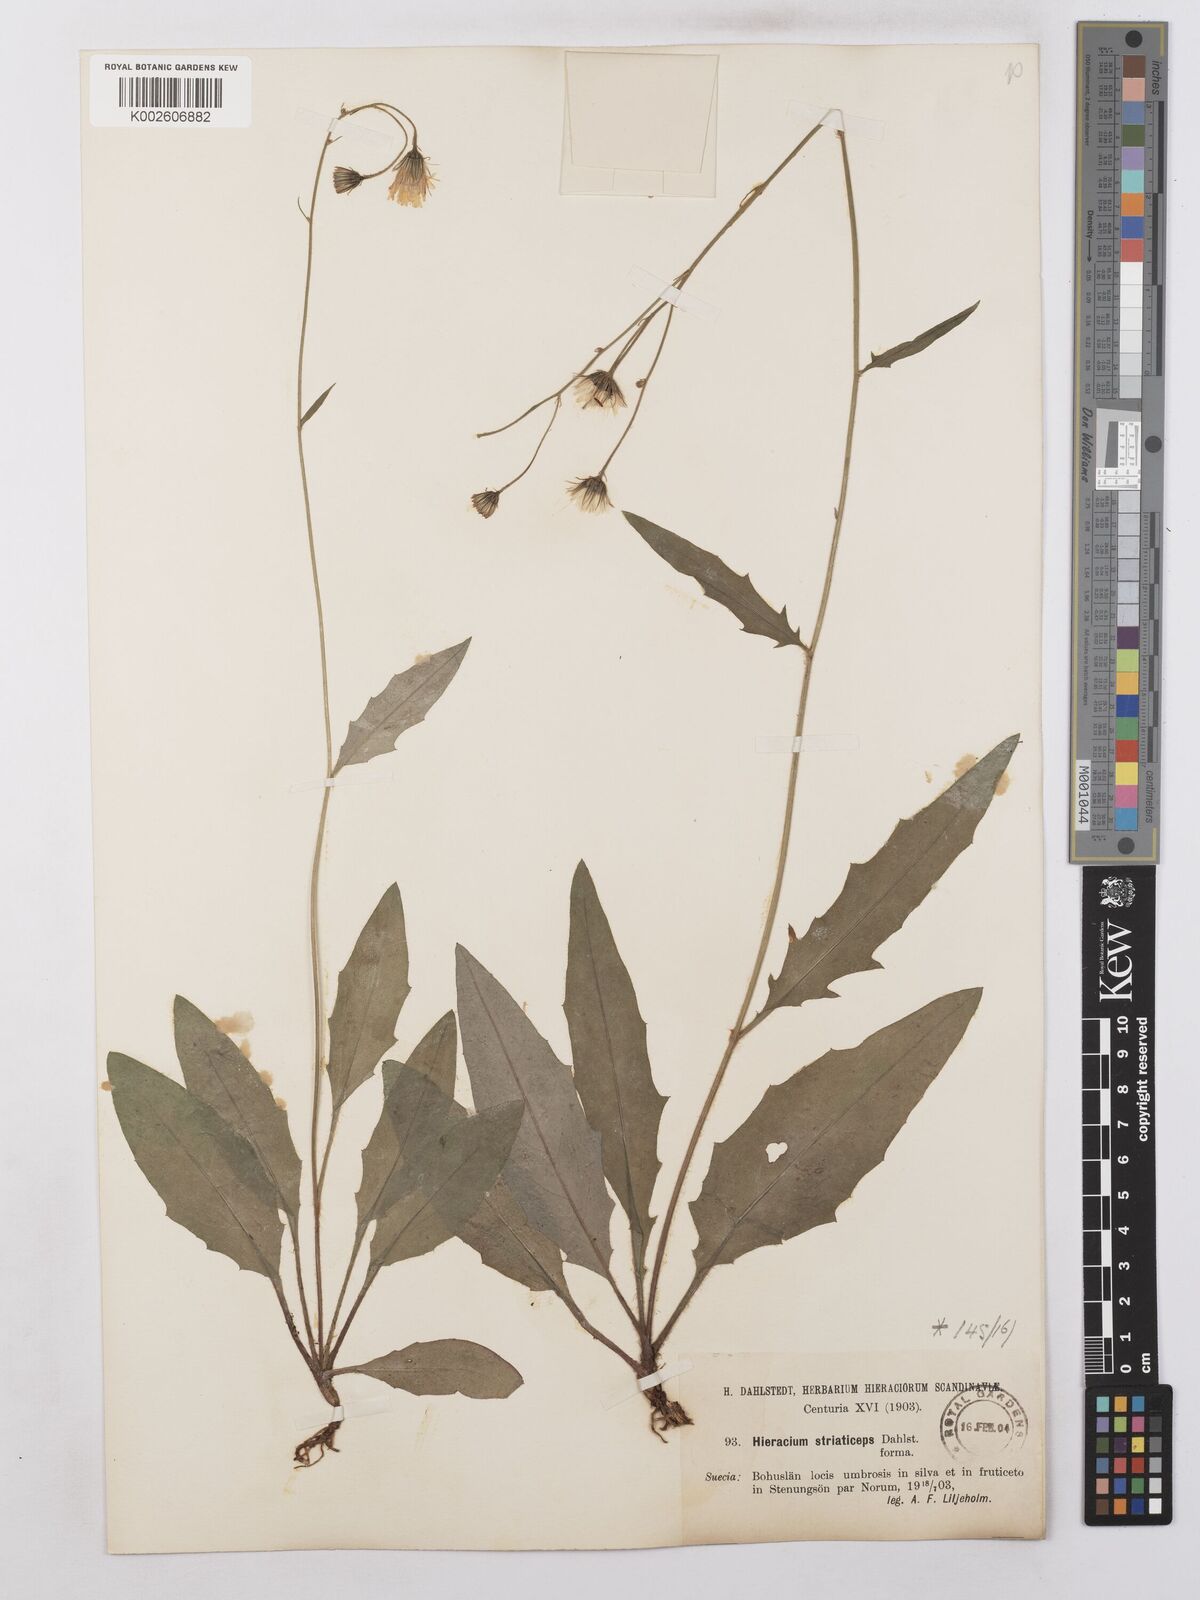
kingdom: Plantae
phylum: Tracheophyta
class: Magnoliopsida
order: Asterales
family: Asteraceae
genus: Hieracium
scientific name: Hieracium levicaule
